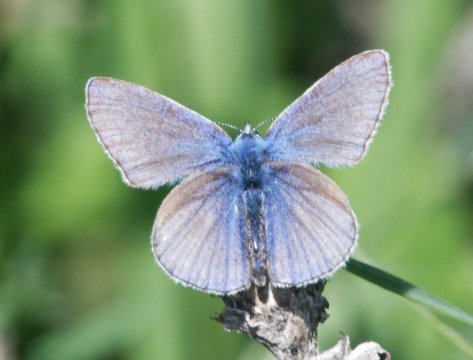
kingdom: Animalia
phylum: Arthropoda
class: Insecta
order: Lepidoptera
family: Lycaenidae
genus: Polyommatus
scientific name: Polyommatus icarus
